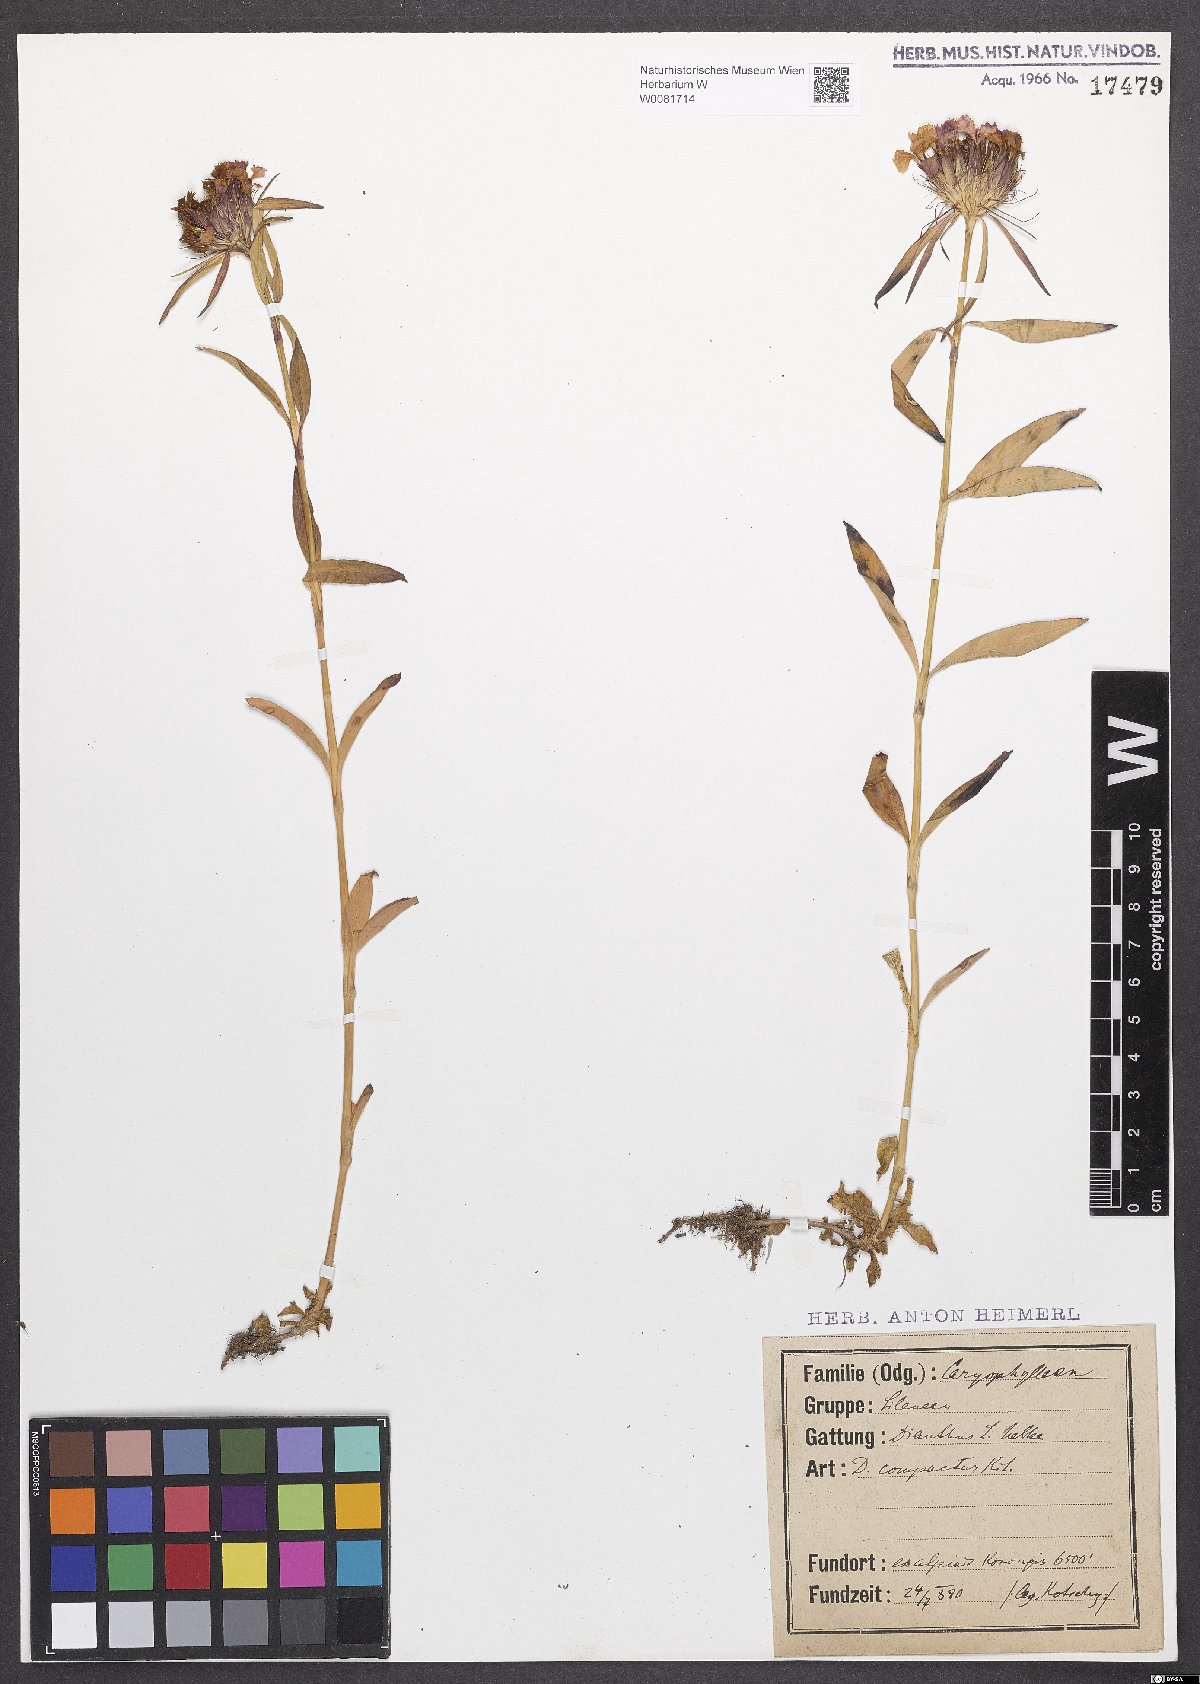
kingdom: Plantae
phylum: Tracheophyta
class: Magnoliopsida
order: Caryophyllales
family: Caryophyllaceae
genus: Dianthus
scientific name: Dianthus barbatus
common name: Sweet-william
